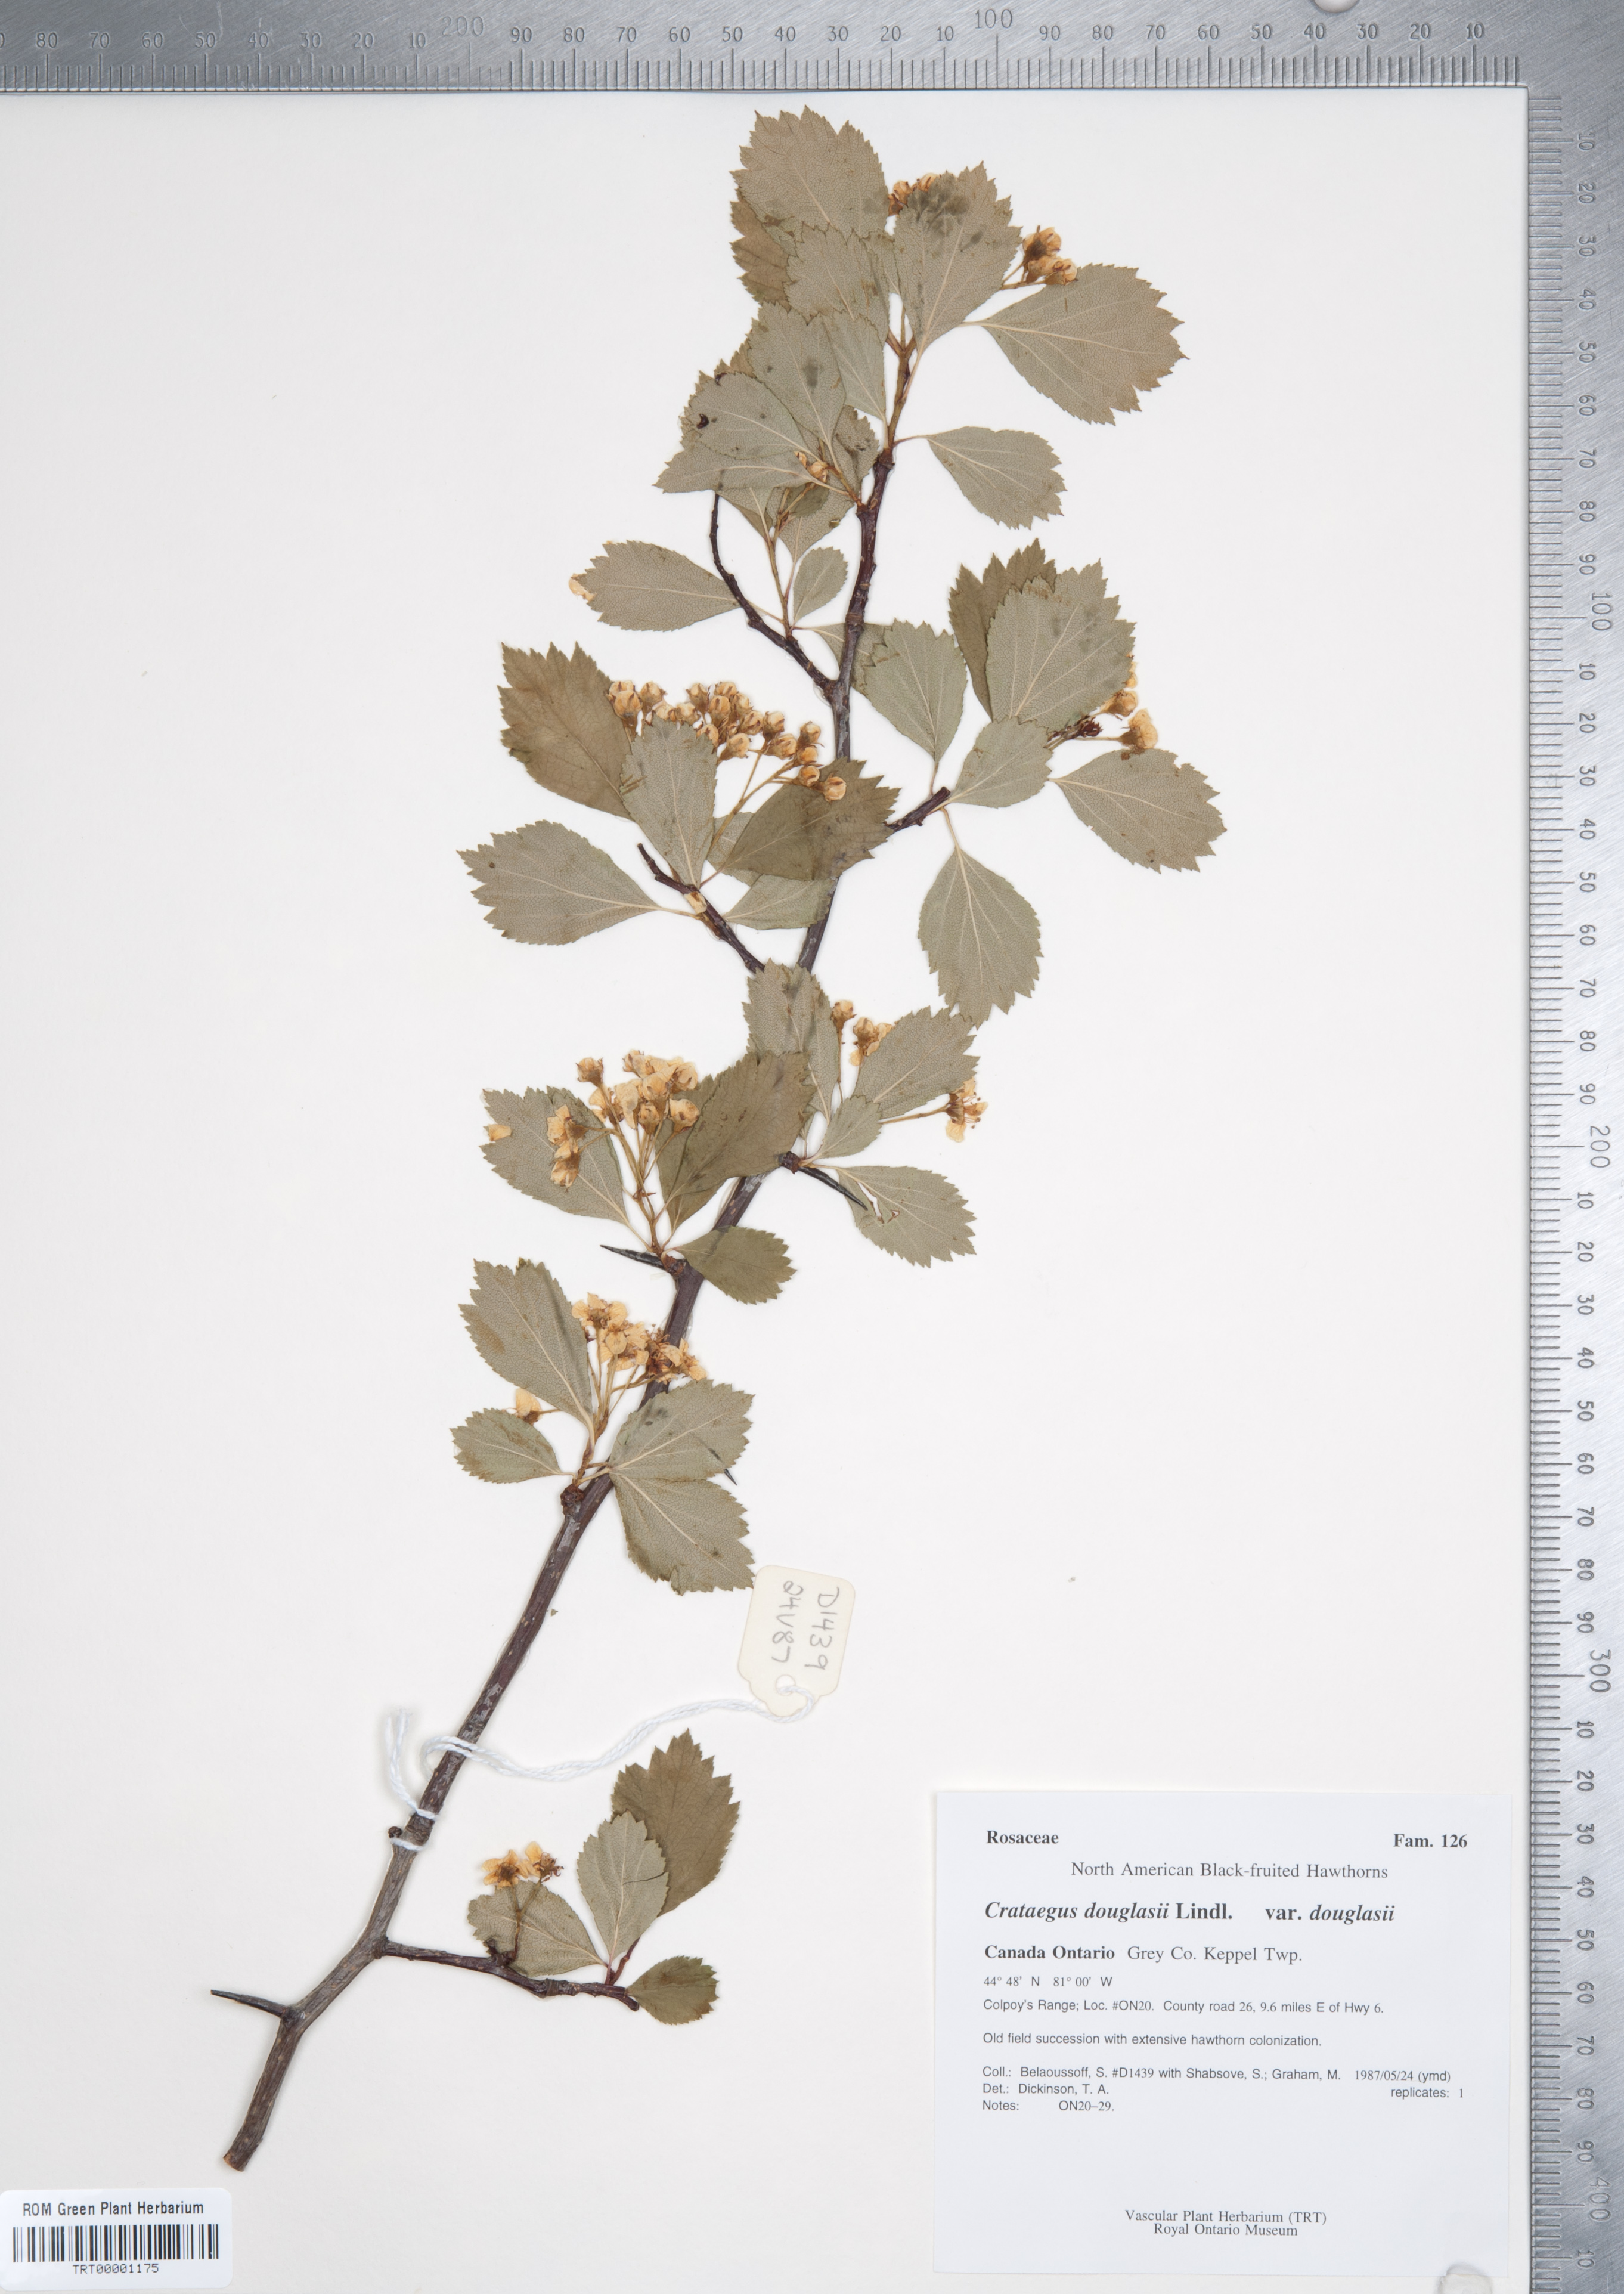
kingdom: Plantae
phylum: Tracheophyta
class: Magnoliopsida
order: Rosales
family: Rosaceae
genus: Crataegus
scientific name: Crataegus douglasii
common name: Black hawthorn
